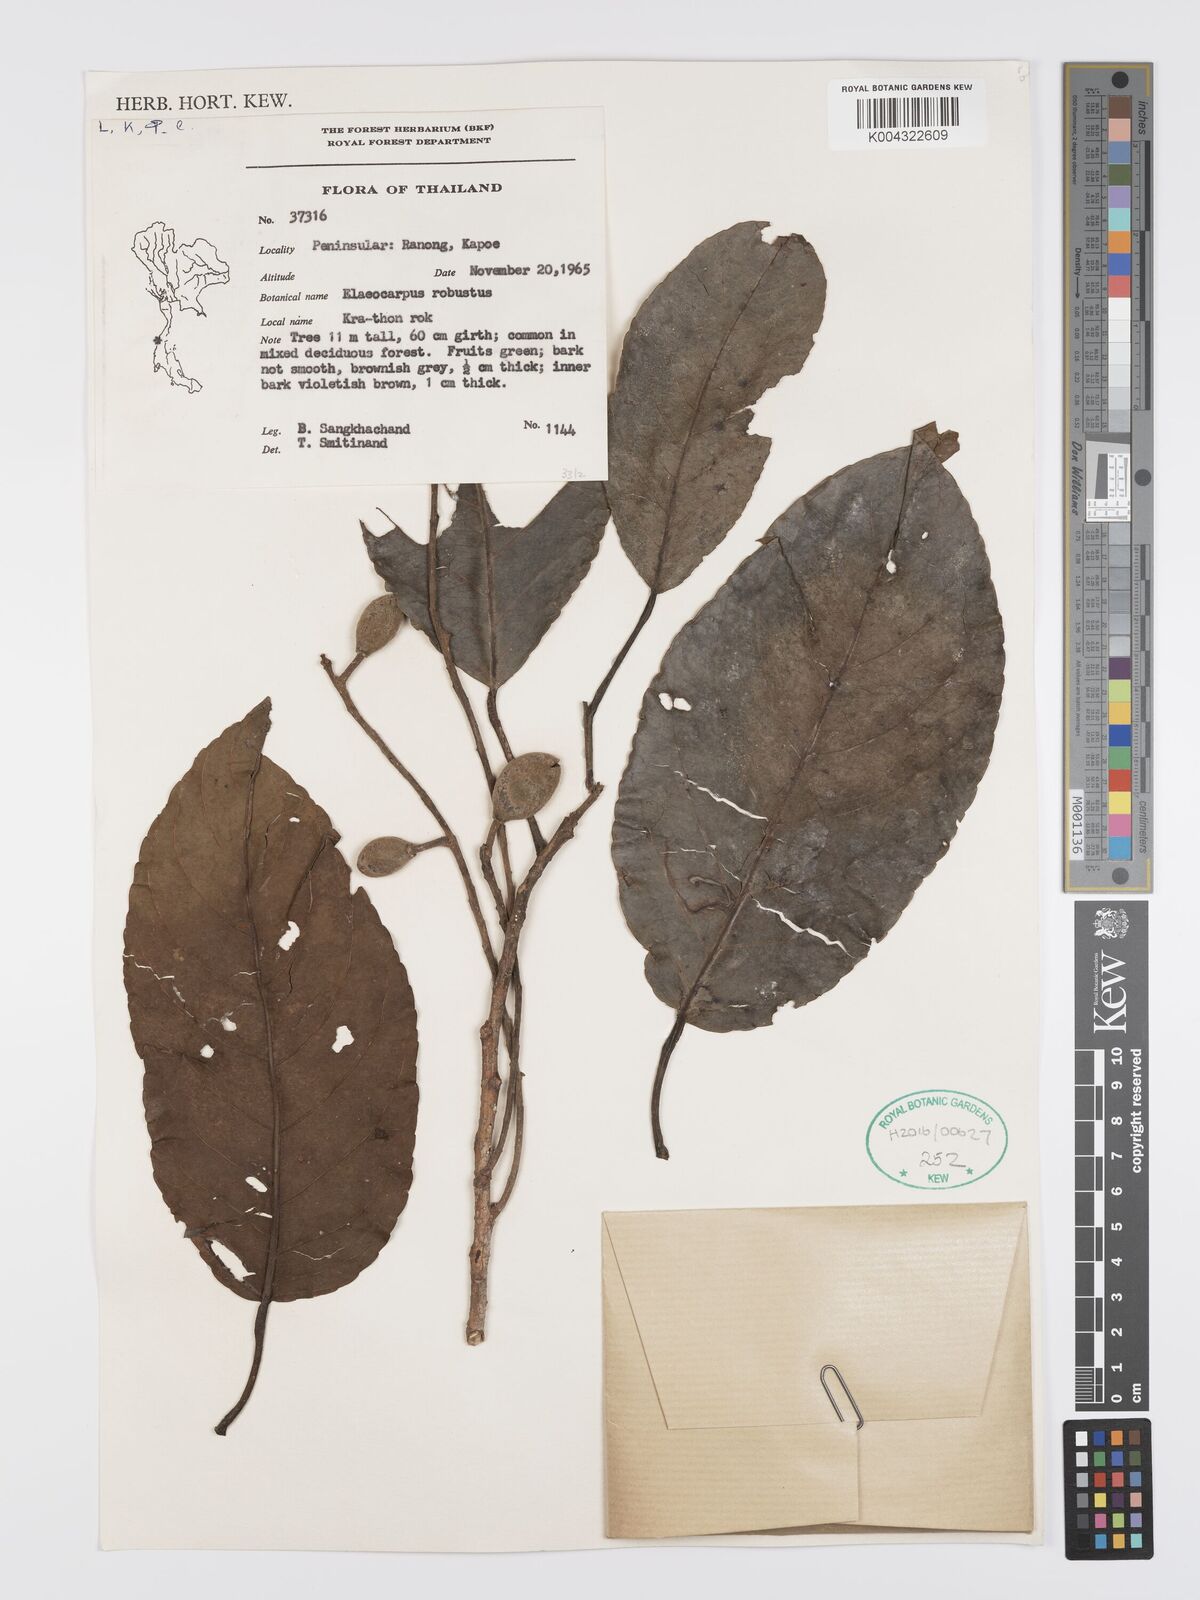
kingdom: Plantae
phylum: Tracheophyta
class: Magnoliopsida
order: Oxalidales
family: Elaeocarpaceae
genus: Elaeocarpus
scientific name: Elaeocarpus robustus
